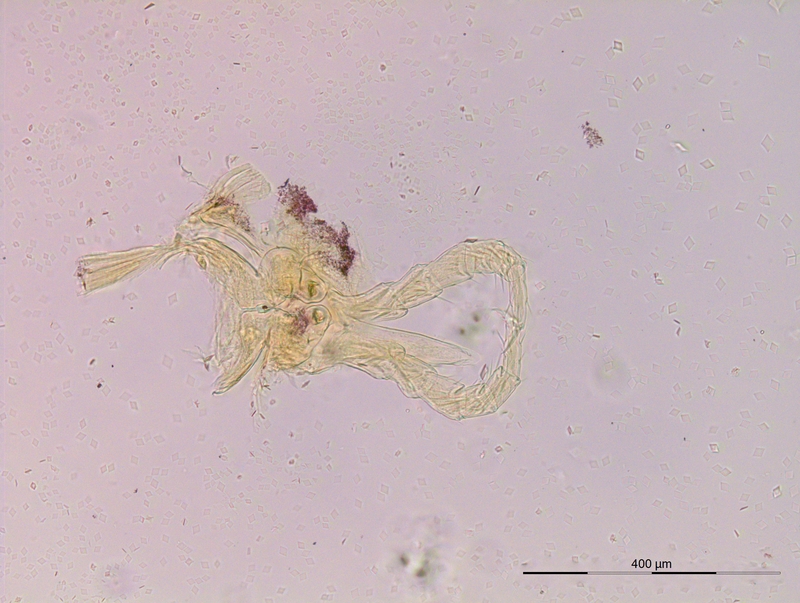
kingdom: Animalia
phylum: Arthropoda
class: Diplopoda
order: Julida
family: Blaniulidae
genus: Proteroiulus
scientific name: Proteroiulus fuscus
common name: Millipede
